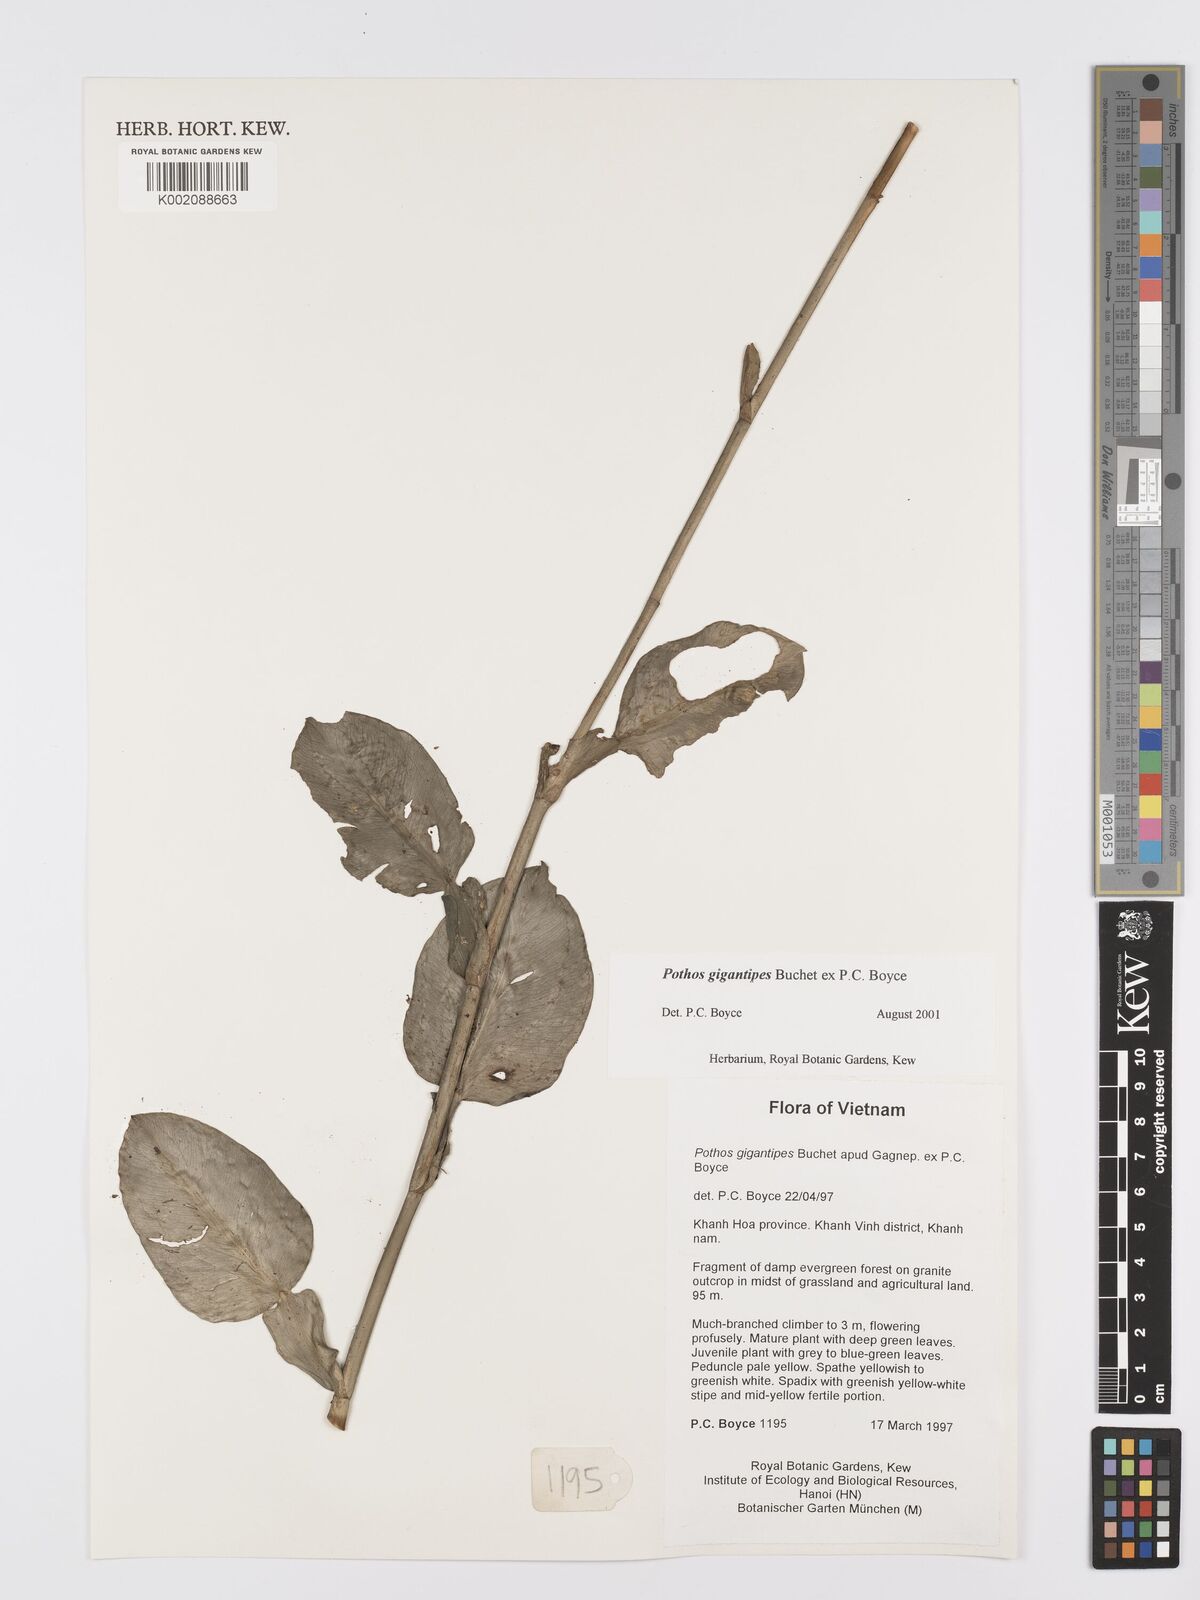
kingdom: Plantae
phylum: Tracheophyta
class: Liliopsida
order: Alismatales
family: Araceae
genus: Pothos
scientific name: Pothos gigantipes
